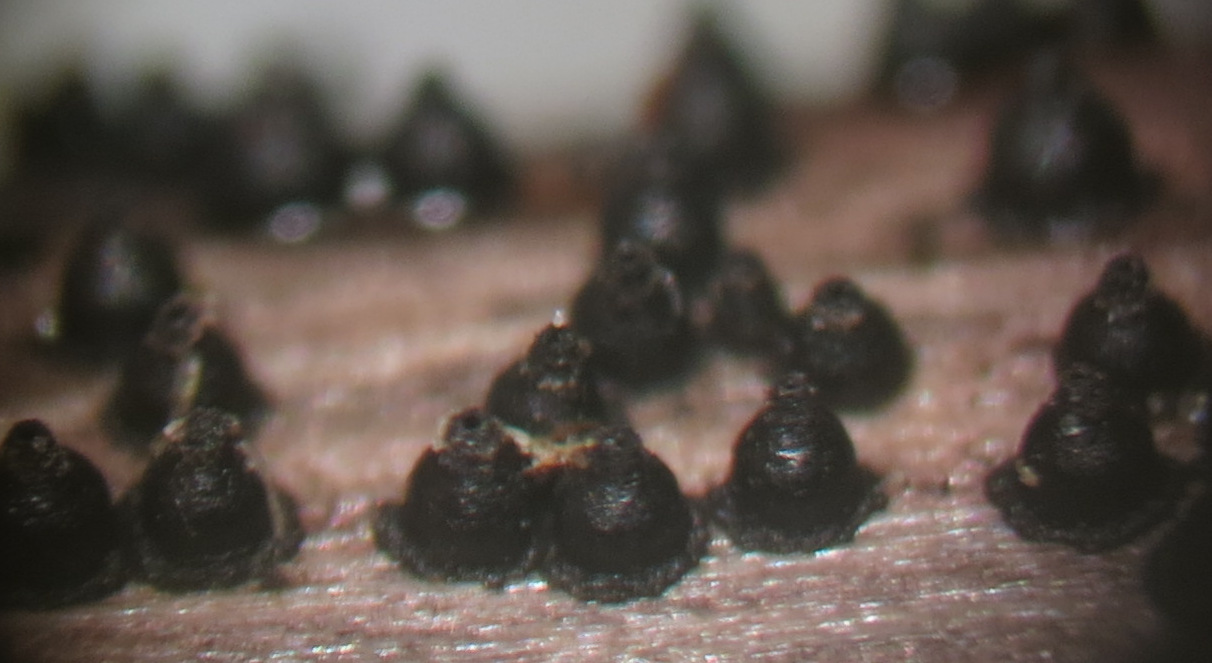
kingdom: Fungi
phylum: Ascomycota
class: Dothideomycetes
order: Pleosporales
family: Leptosphaeriaceae
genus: Leptosphaeria
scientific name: Leptosphaeria acuta
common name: spids kulkegle
